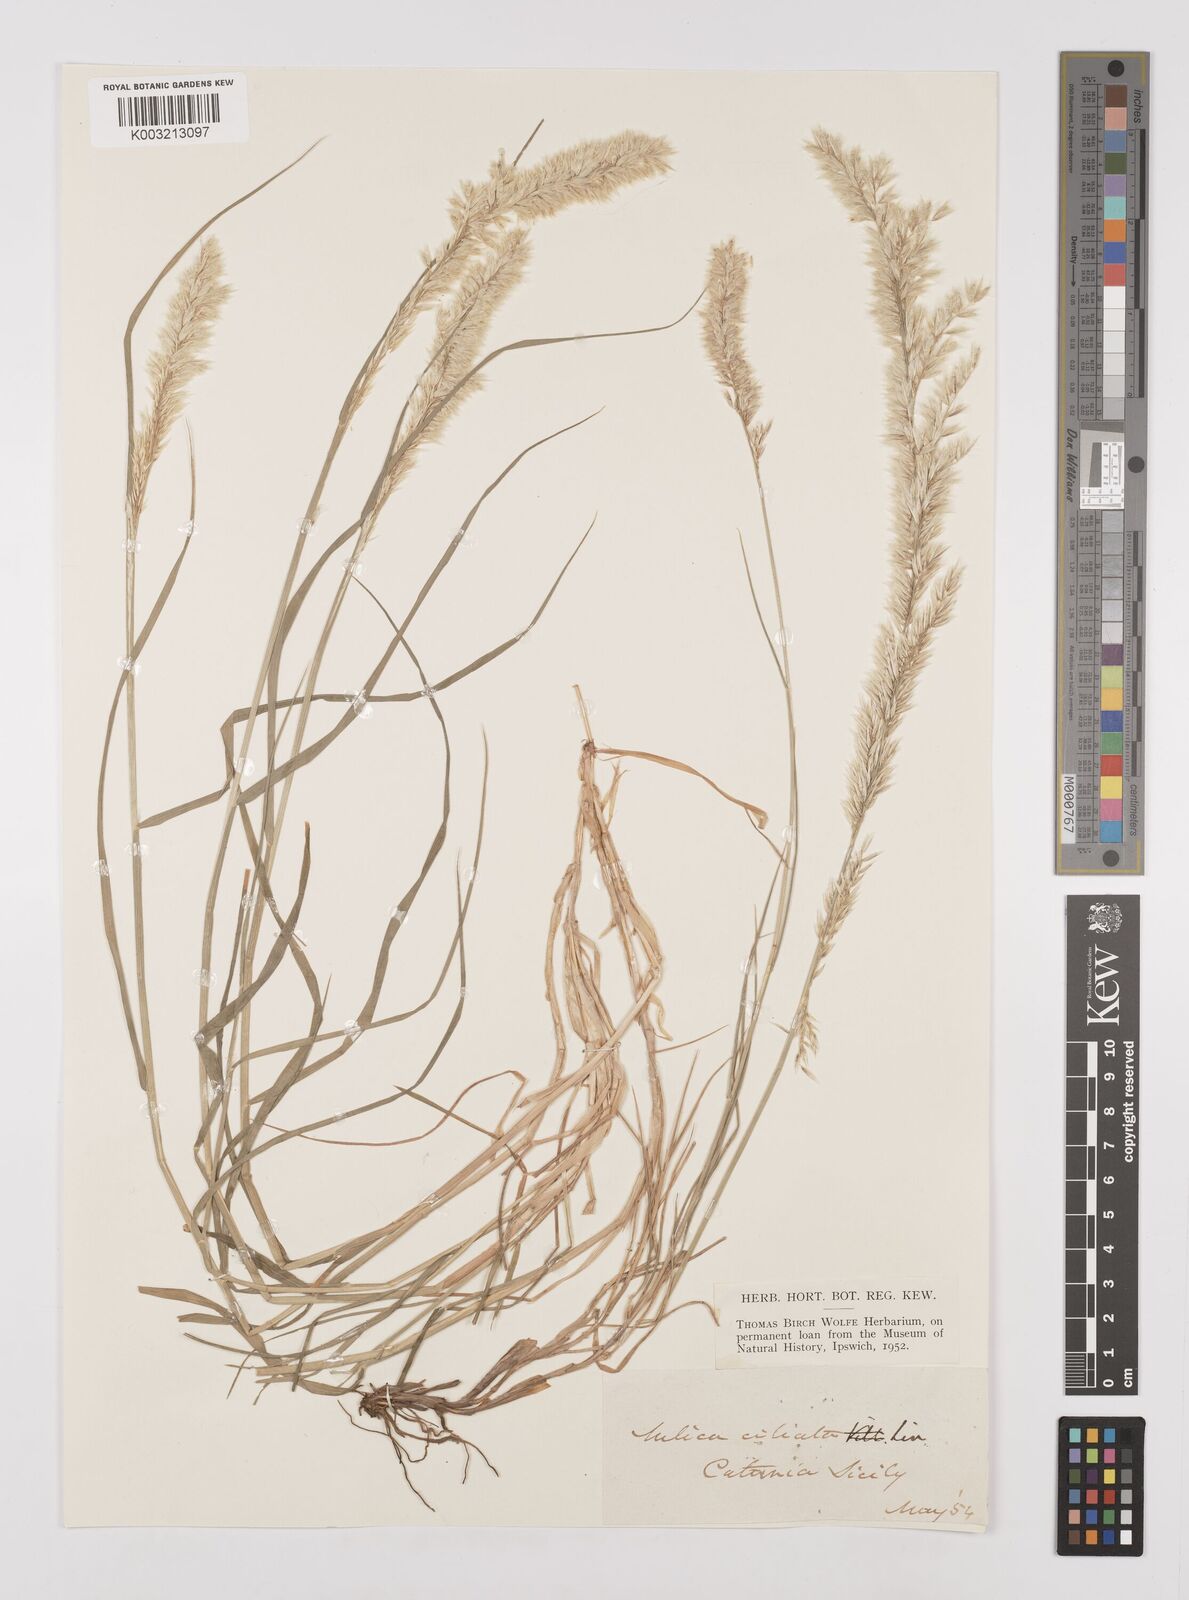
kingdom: Plantae
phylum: Tracheophyta
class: Liliopsida
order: Poales
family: Poaceae
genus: Melica
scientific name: Melica ciliata
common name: Hairy melicgrass
